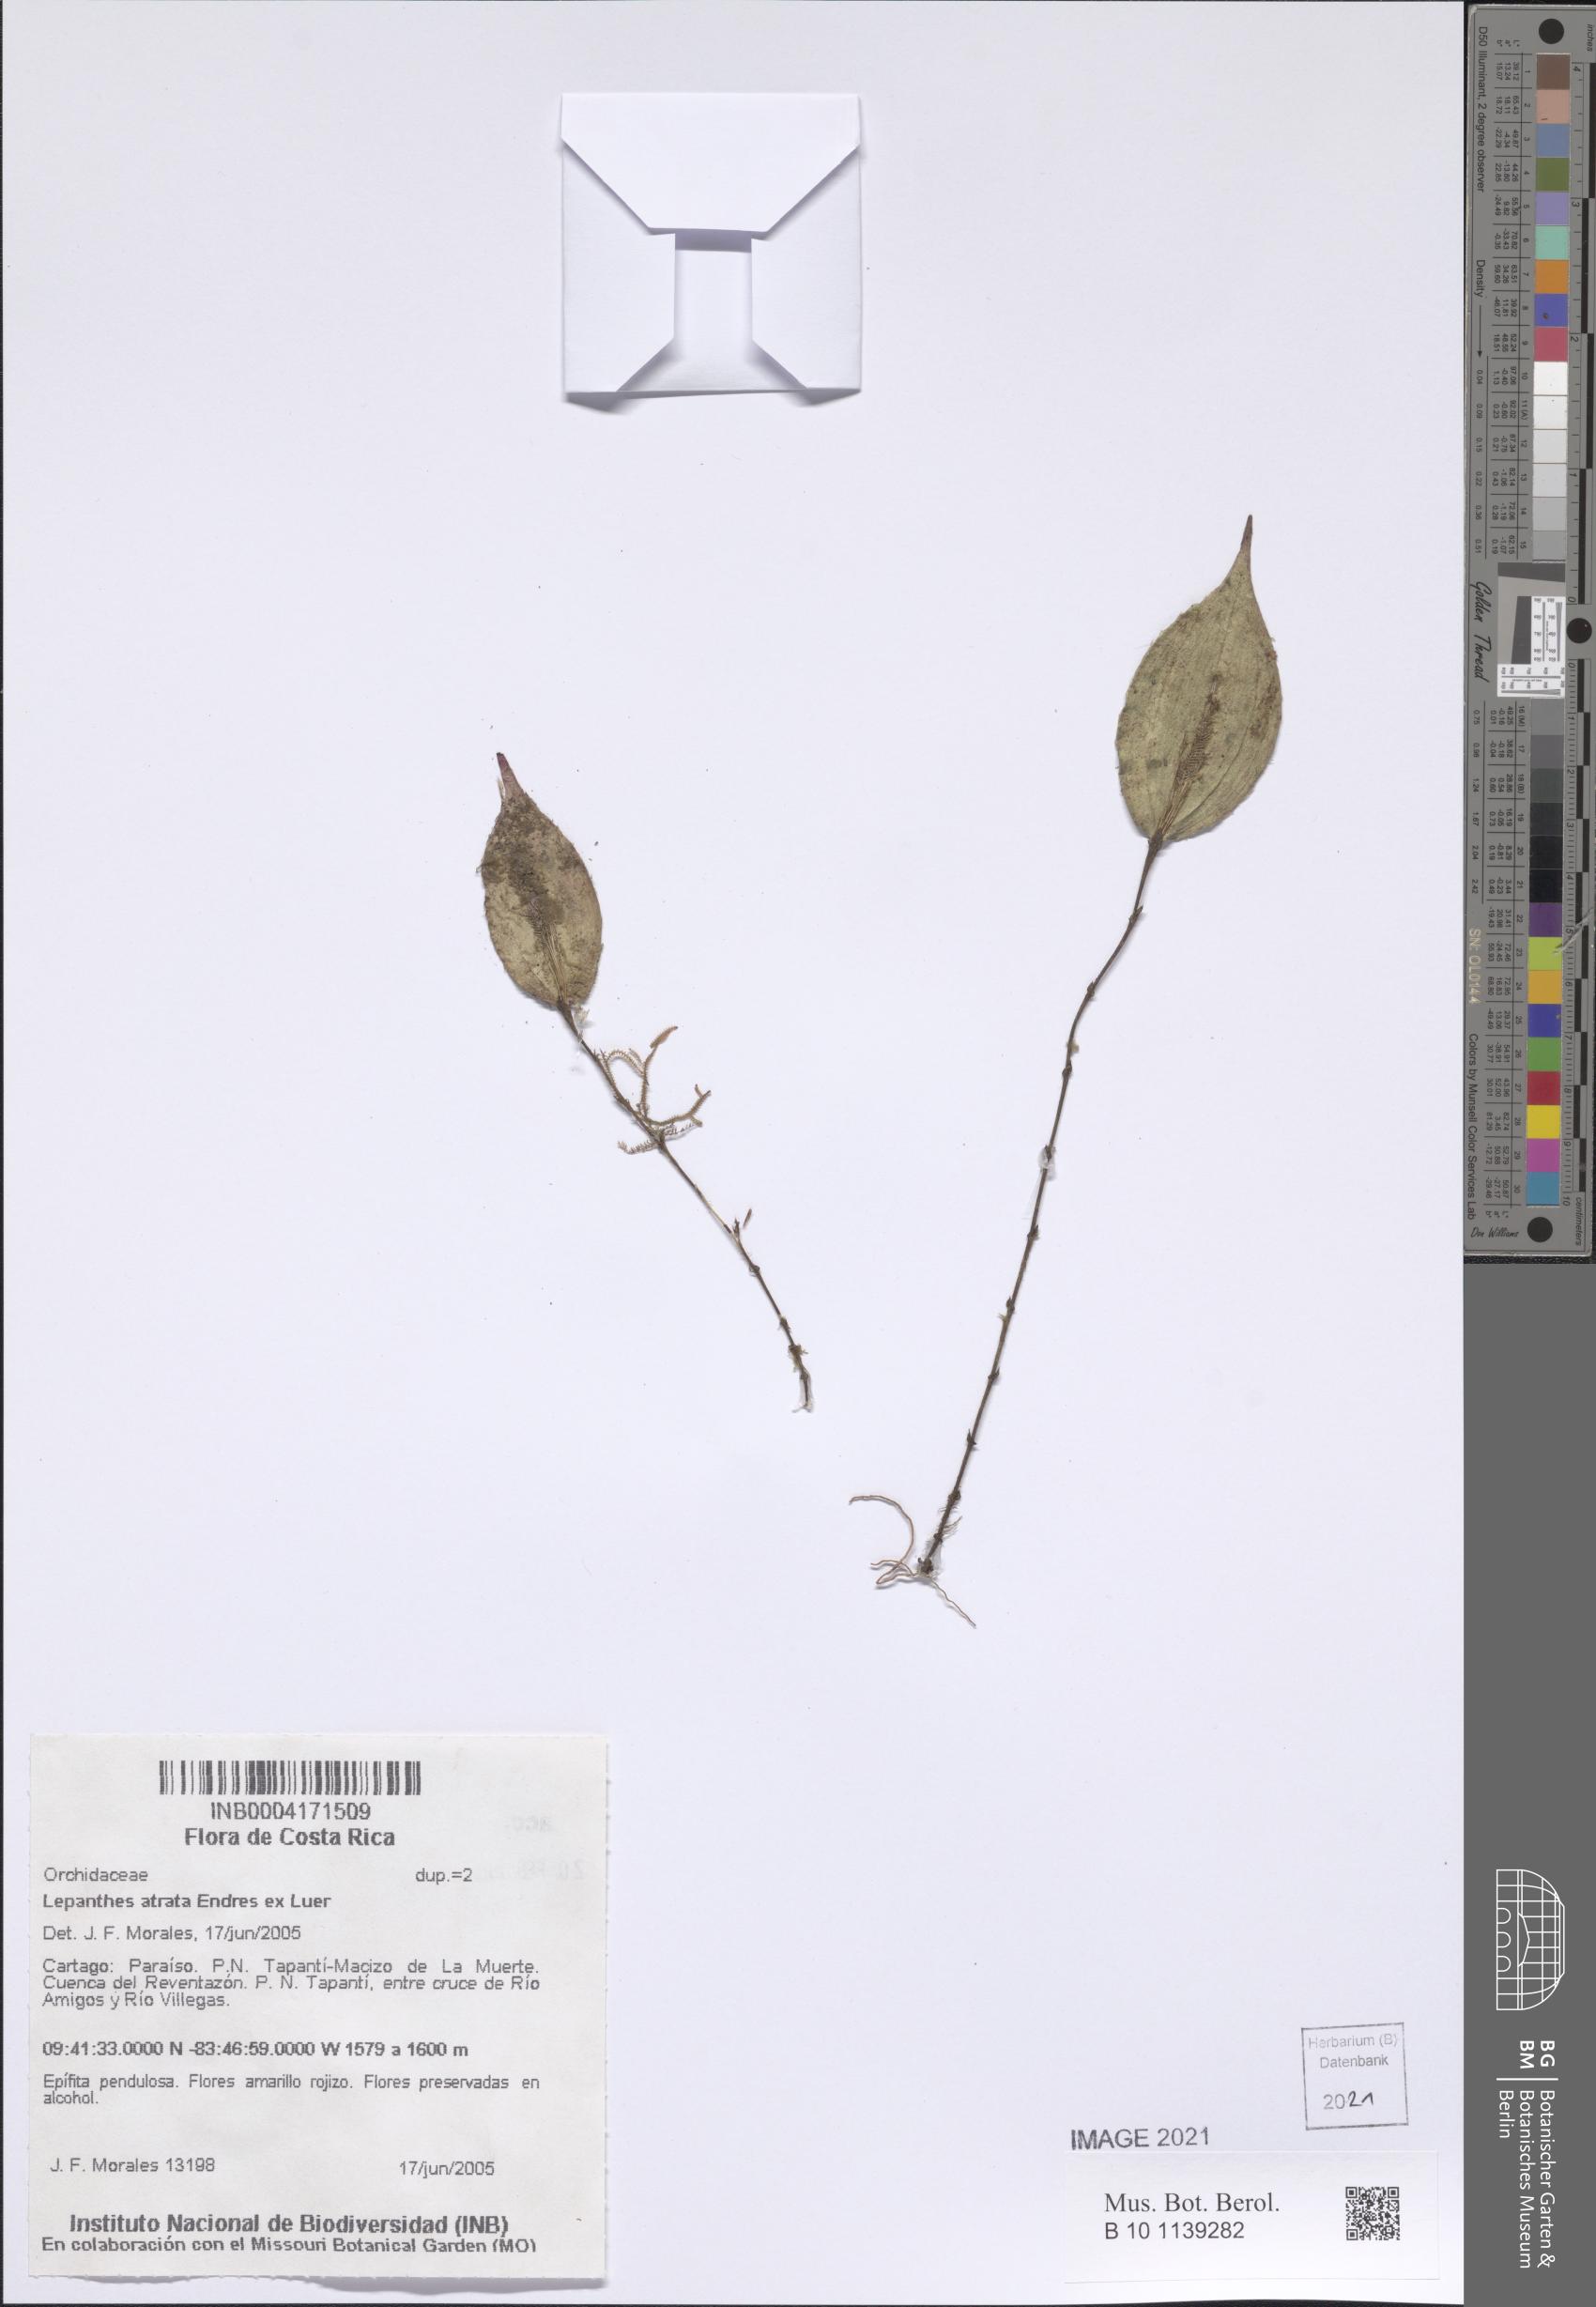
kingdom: Plantae
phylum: Tracheophyta
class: Liliopsida
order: Asparagales
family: Orchidaceae
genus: Lepanthes
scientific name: Lepanthes atrata
